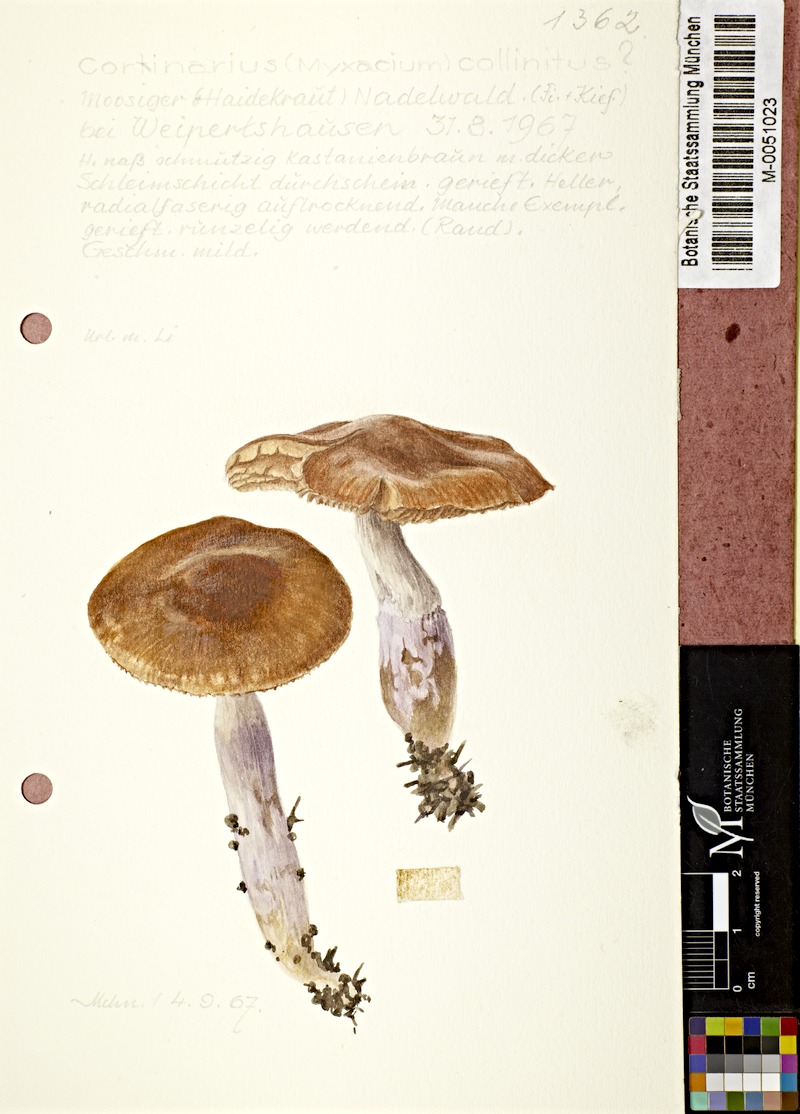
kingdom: Fungi
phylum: Basidiomycota
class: Agaricomycetes
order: Agaricales
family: Cortinariaceae
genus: Cortinarius
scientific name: Cortinarius collinitus
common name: Blue-girdled webcap
